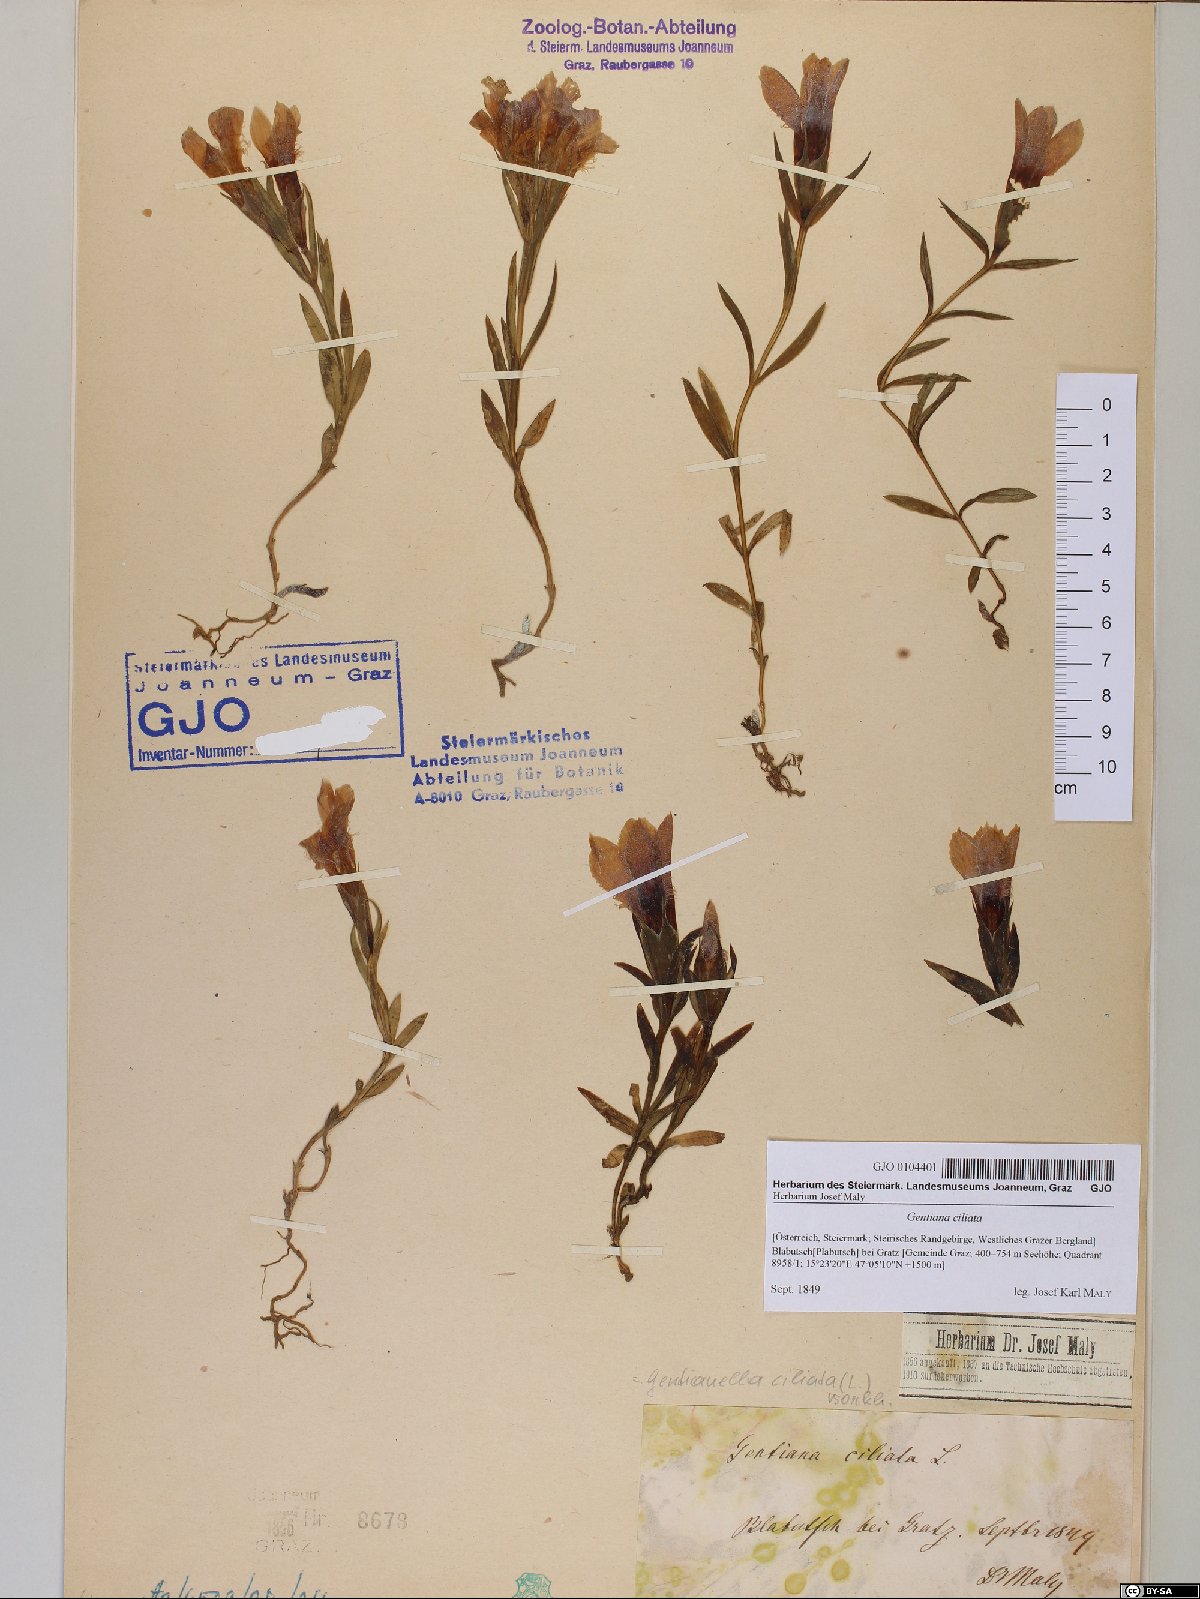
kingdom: Plantae
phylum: Tracheophyta
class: Magnoliopsida
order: Gentianales
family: Gentianaceae
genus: Gentianopsis
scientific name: Gentianopsis ciliata
